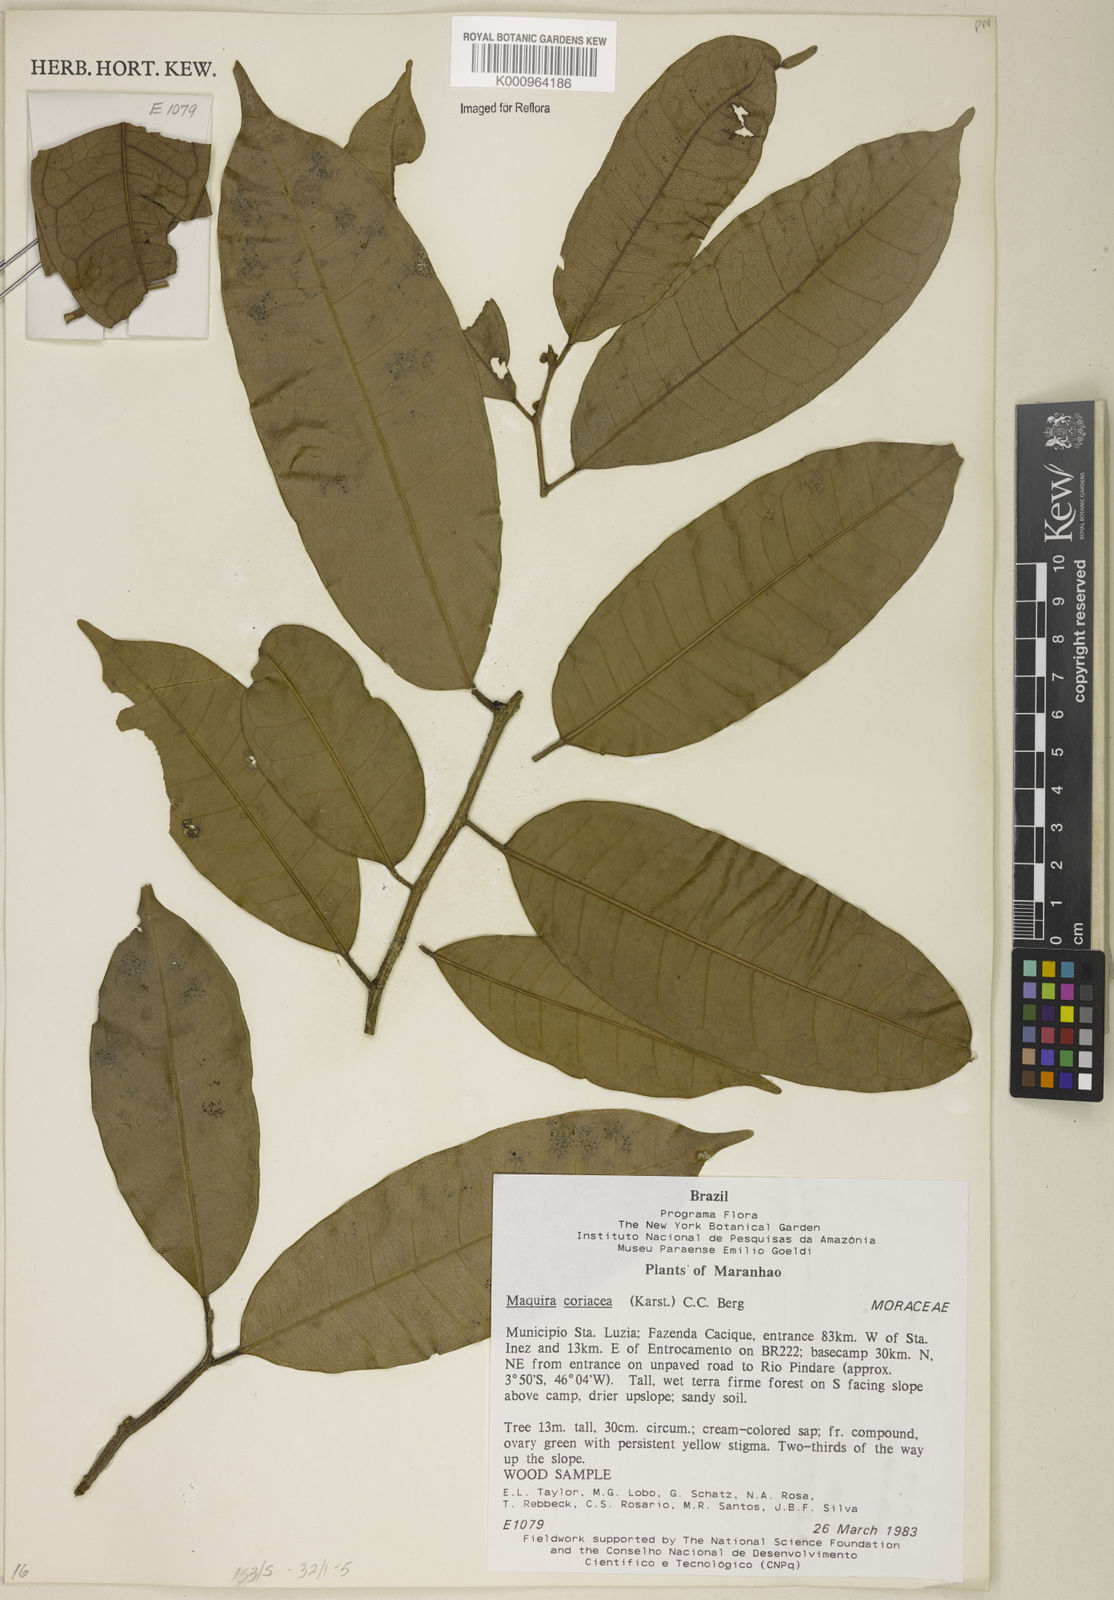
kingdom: Plantae
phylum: Tracheophyta
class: Magnoliopsida
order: Rosales
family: Moraceae
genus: Maquira
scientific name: Maquira coriacea
